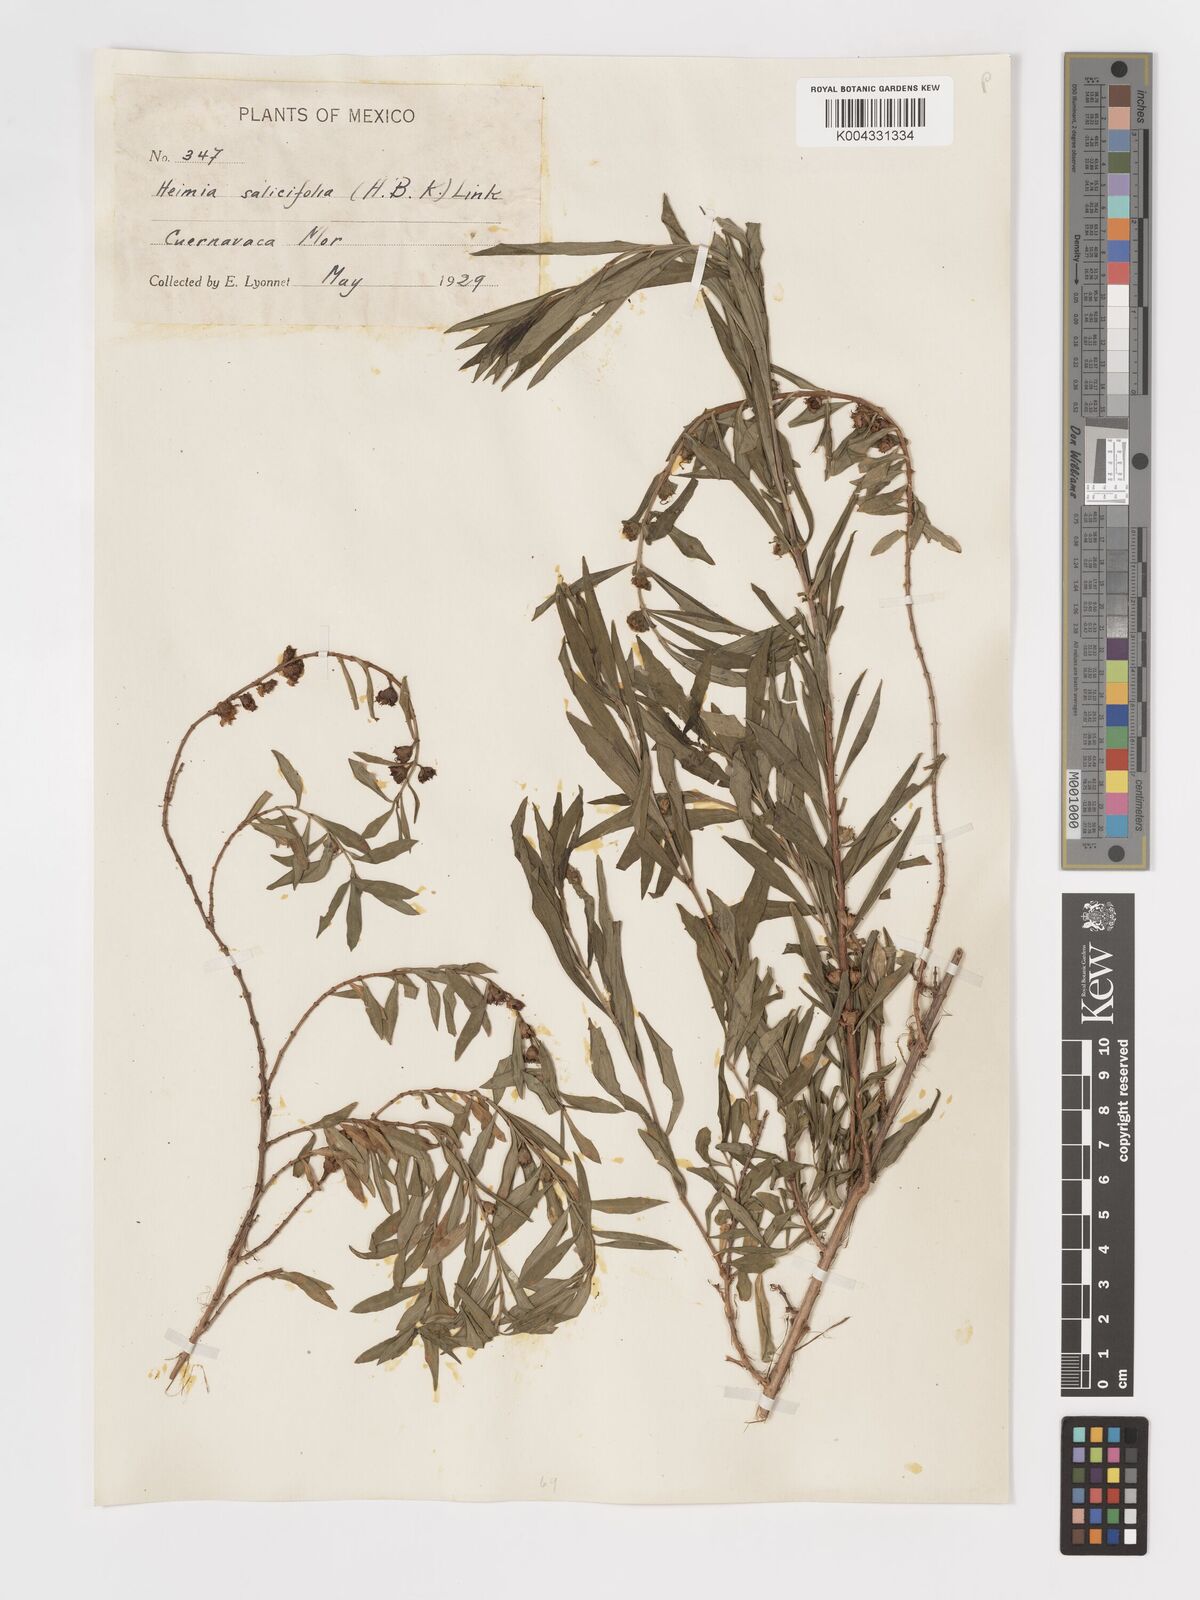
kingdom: Plantae
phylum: Tracheophyta
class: Magnoliopsida
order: Myrtales
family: Lythraceae
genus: Heimia
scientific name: Heimia salicifolia
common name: Willow-leaf heimia
